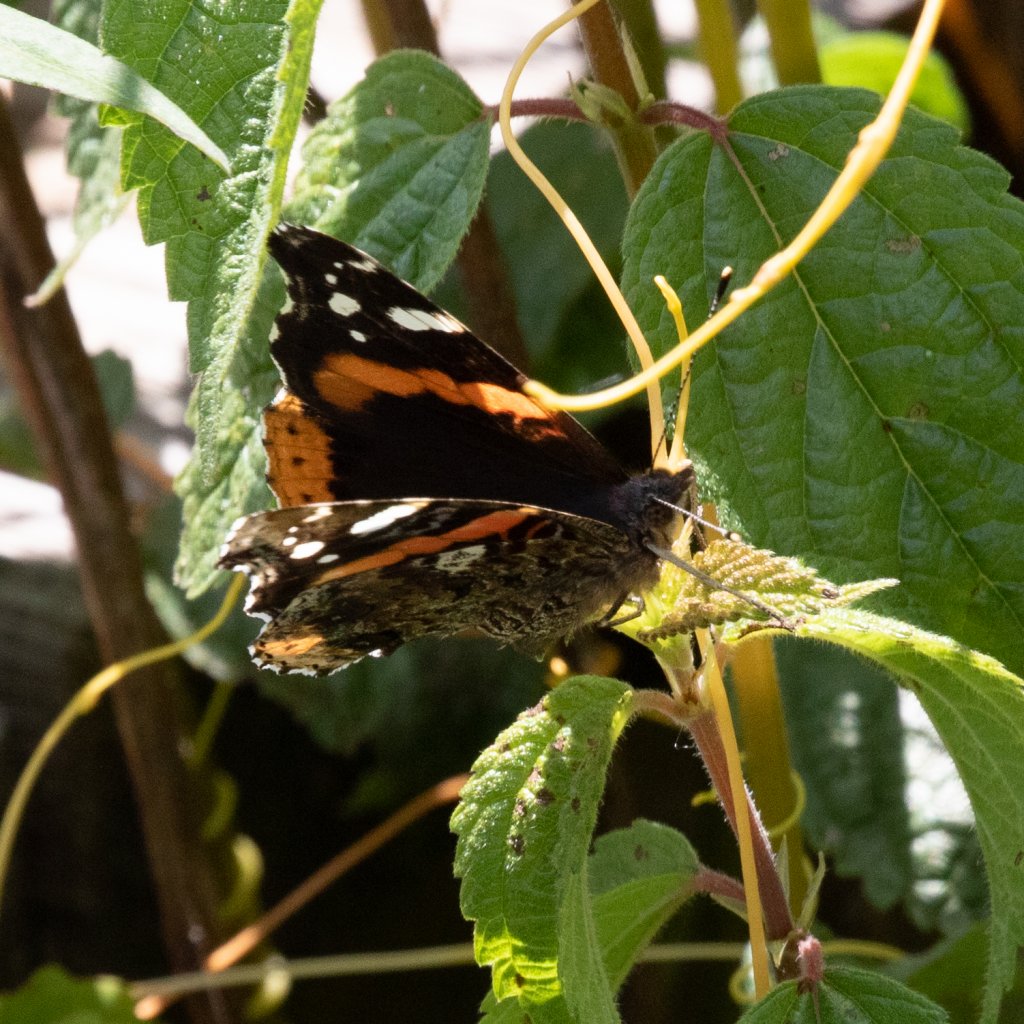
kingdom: Animalia
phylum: Arthropoda
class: Insecta
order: Lepidoptera
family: Nymphalidae
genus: Vanessa
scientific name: Vanessa atalanta
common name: Red Admiral
